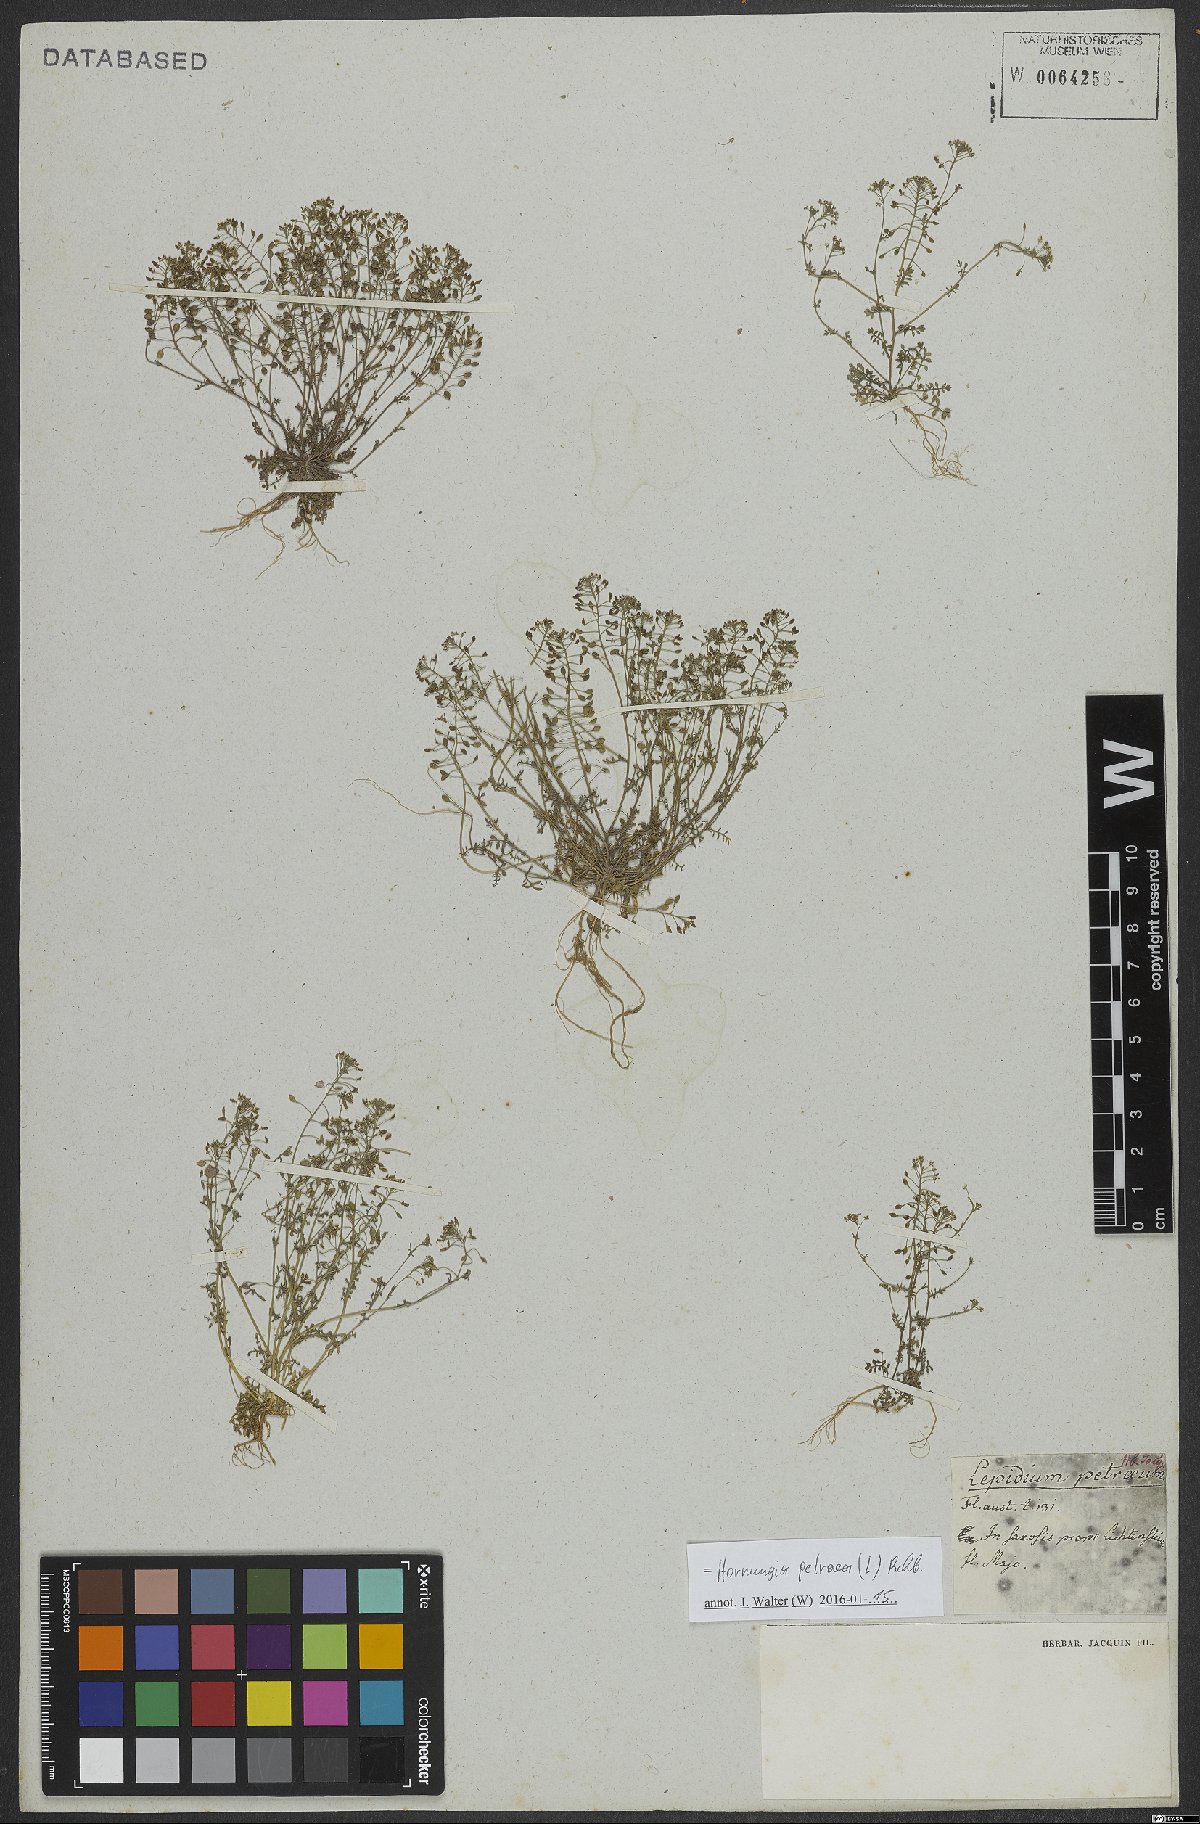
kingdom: Plantae
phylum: Tracheophyta
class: Magnoliopsida
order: Brassicales
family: Brassicaceae
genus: Hornungia
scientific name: Hornungia petraea
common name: Hutchinsia
